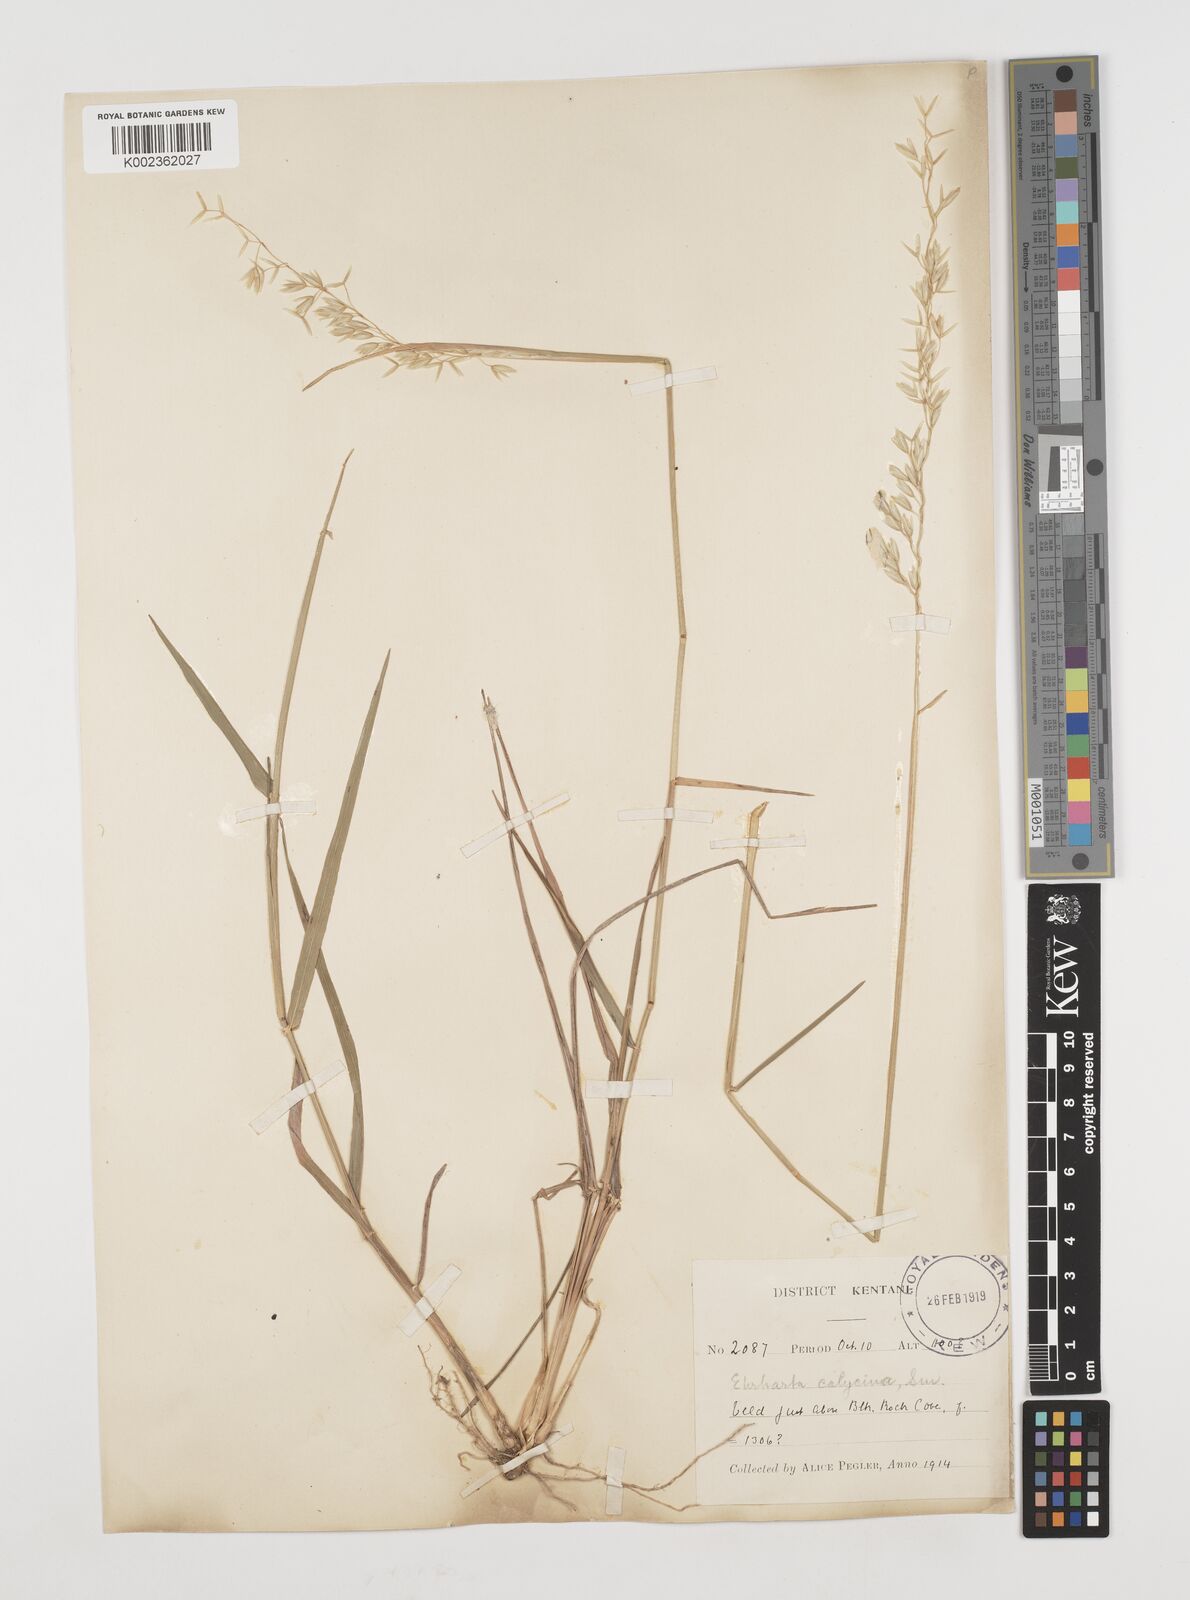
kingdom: Plantae
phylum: Tracheophyta
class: Liliopsida
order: Poales
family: Poaceae
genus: Ehrharta
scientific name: Ehrharta calycina
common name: Perennial veldtgrass
